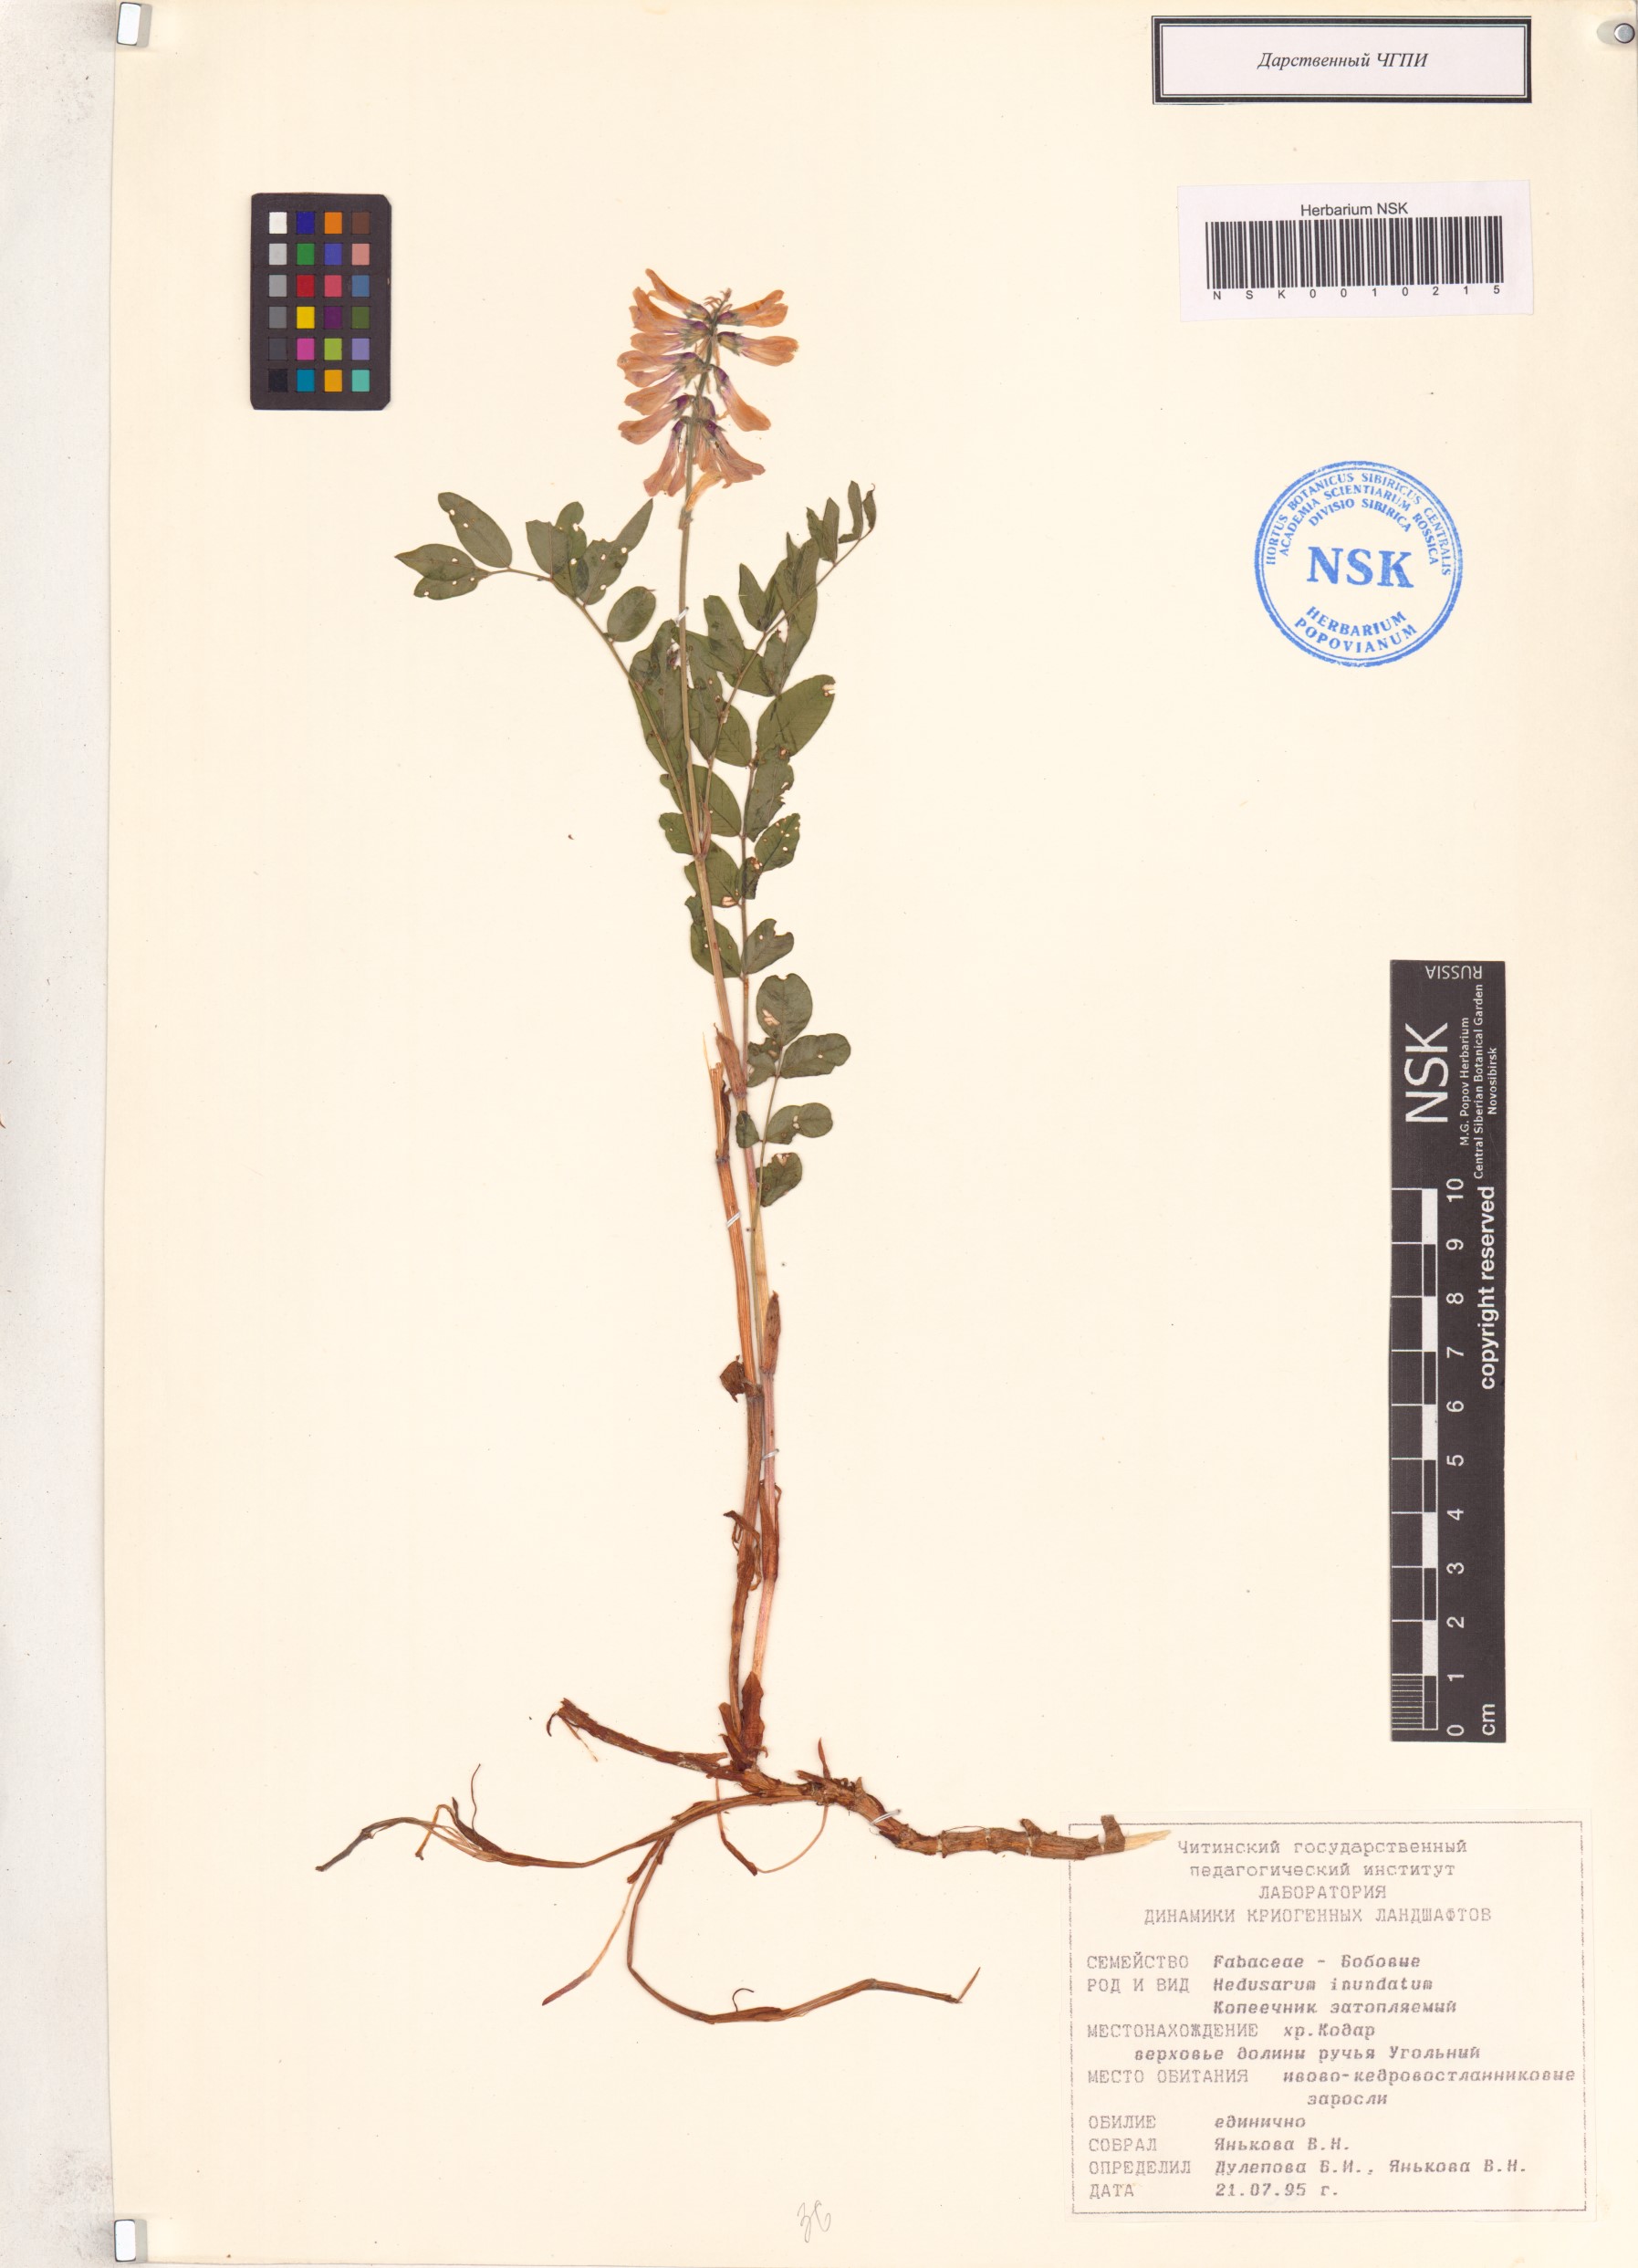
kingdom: Plantae
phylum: Tracheophyta
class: Magnoliopsida
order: Fabales
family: Fabaceae
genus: Hedysarum
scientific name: Hedysarum inundatum
